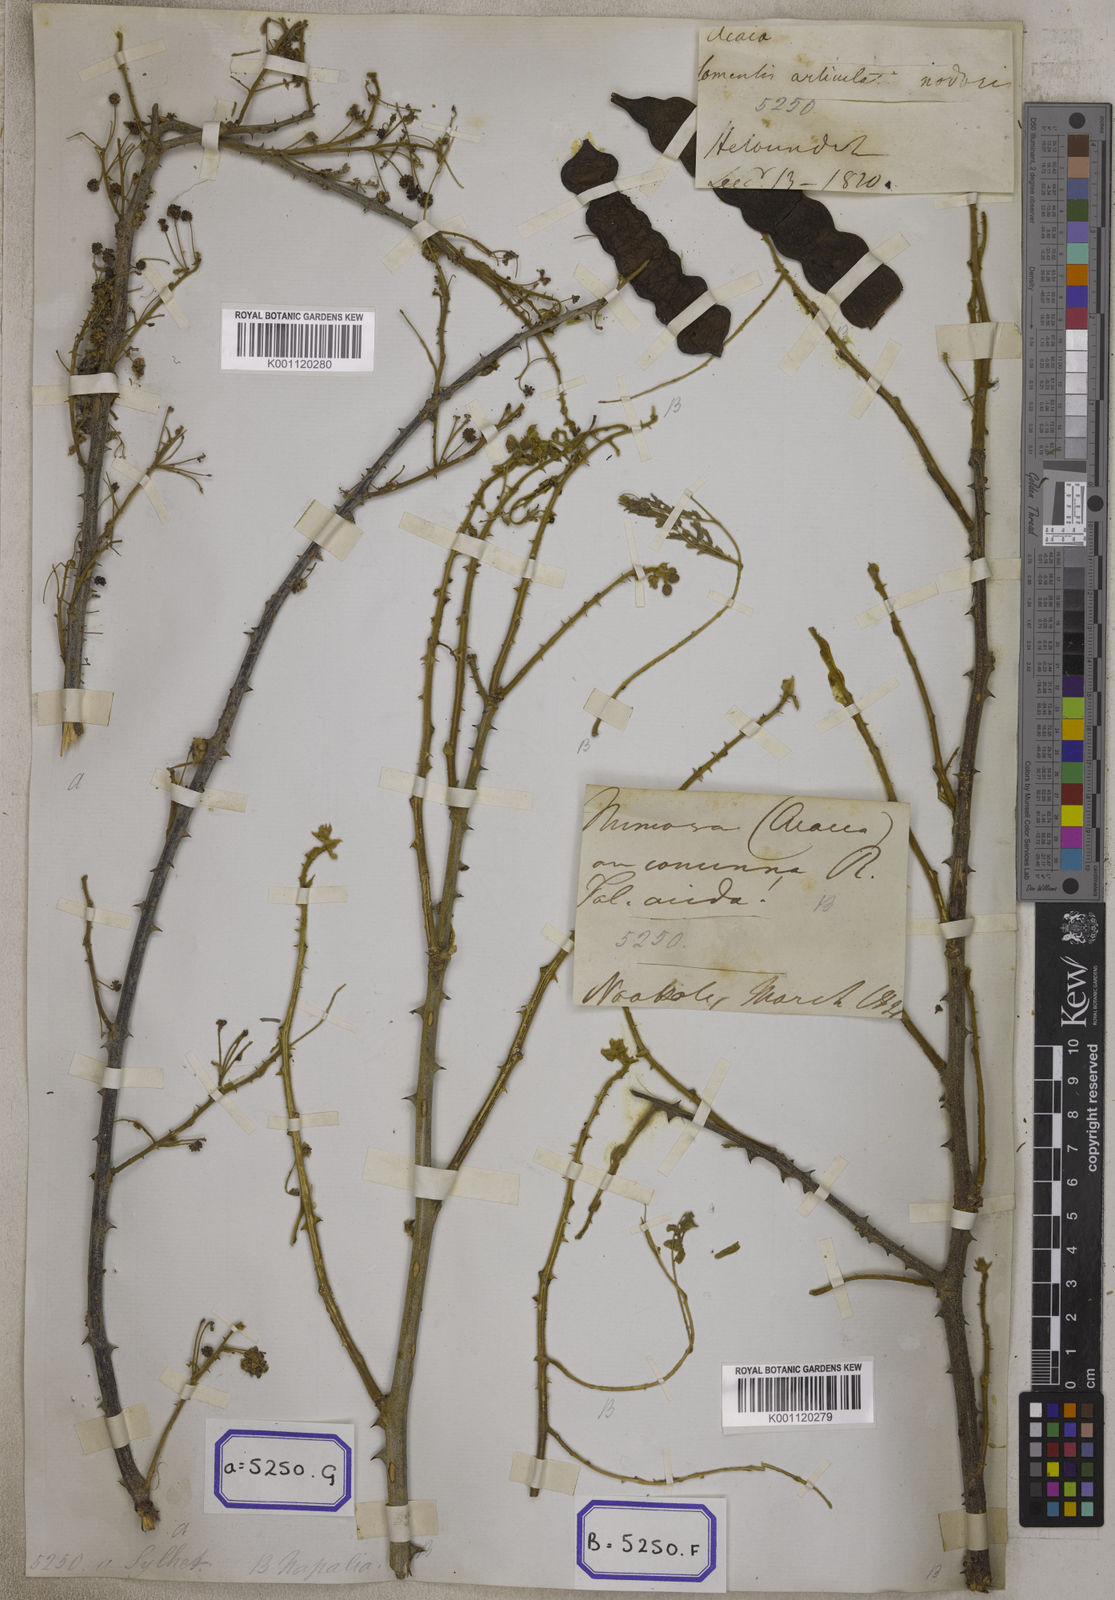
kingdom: Plantae
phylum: Tracheophyta
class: Magnoliopsida
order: Fabales
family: Fabaceae
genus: Senegalia
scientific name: Senegalia rugata
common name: Soap-pod
